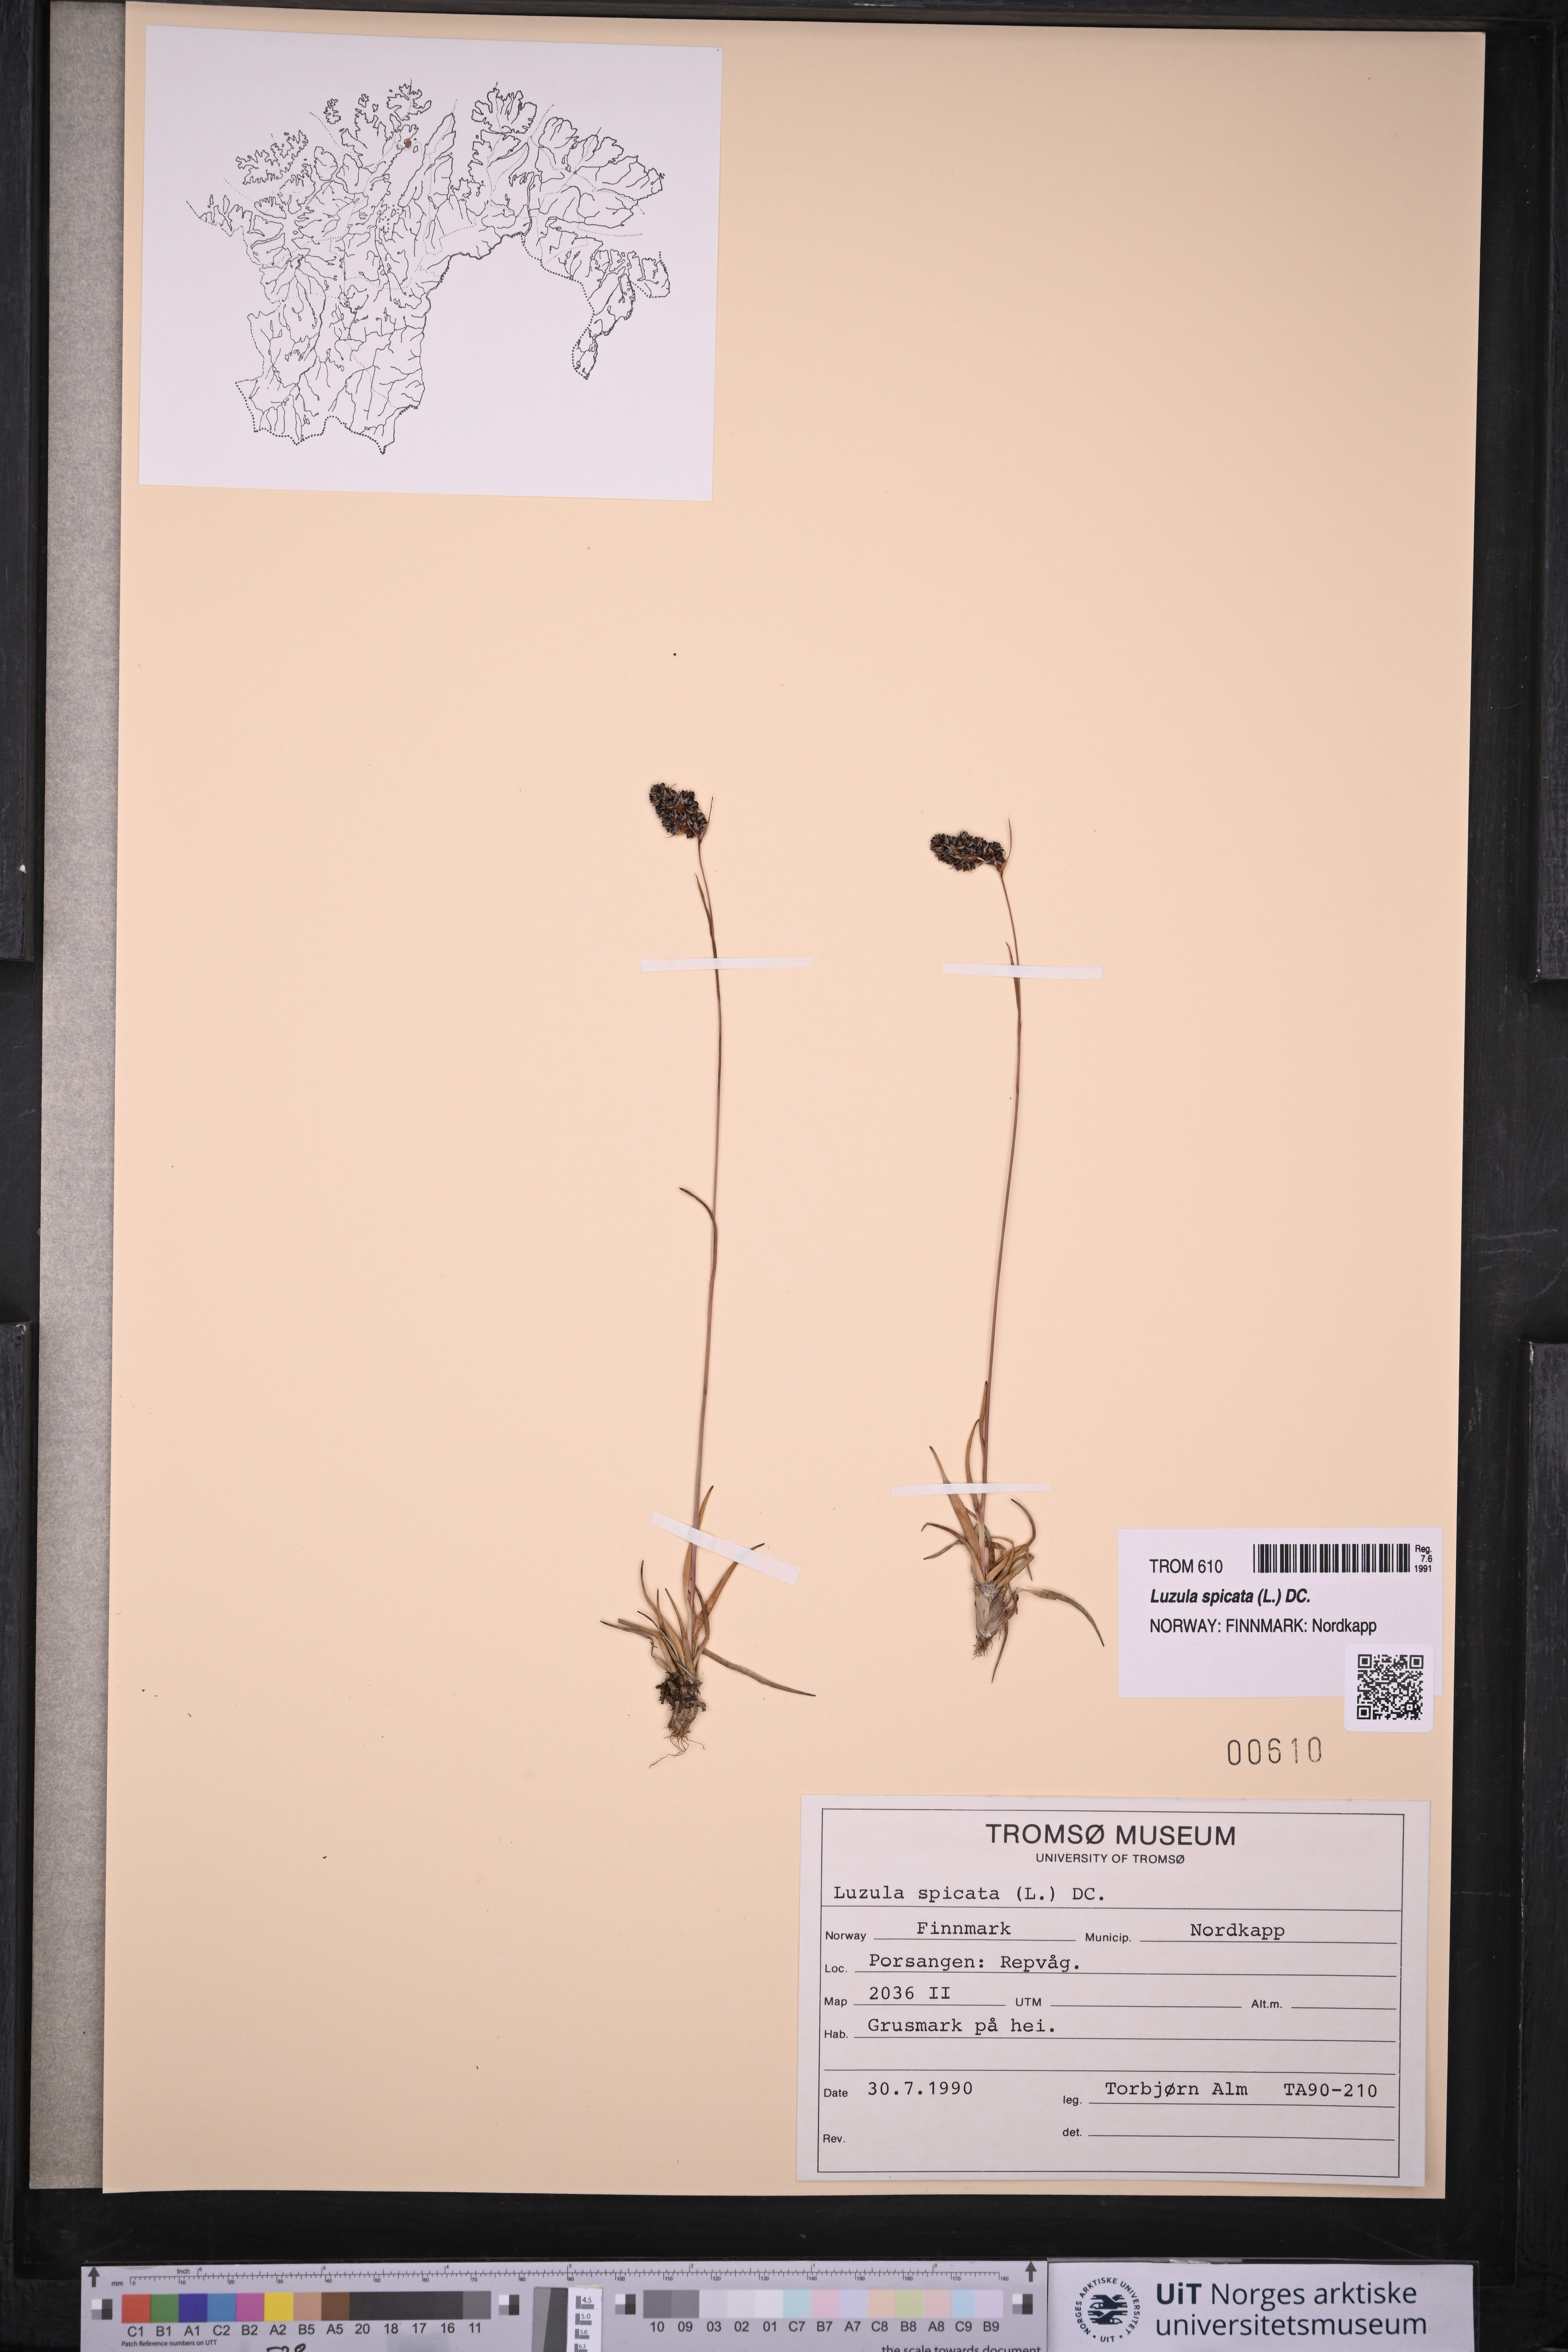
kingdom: Plantae
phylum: Tracheophyta
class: Liliopsida
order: Poales
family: Juncaceae
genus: Luzula
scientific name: Luzula spicata
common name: Spiked wood-rush
